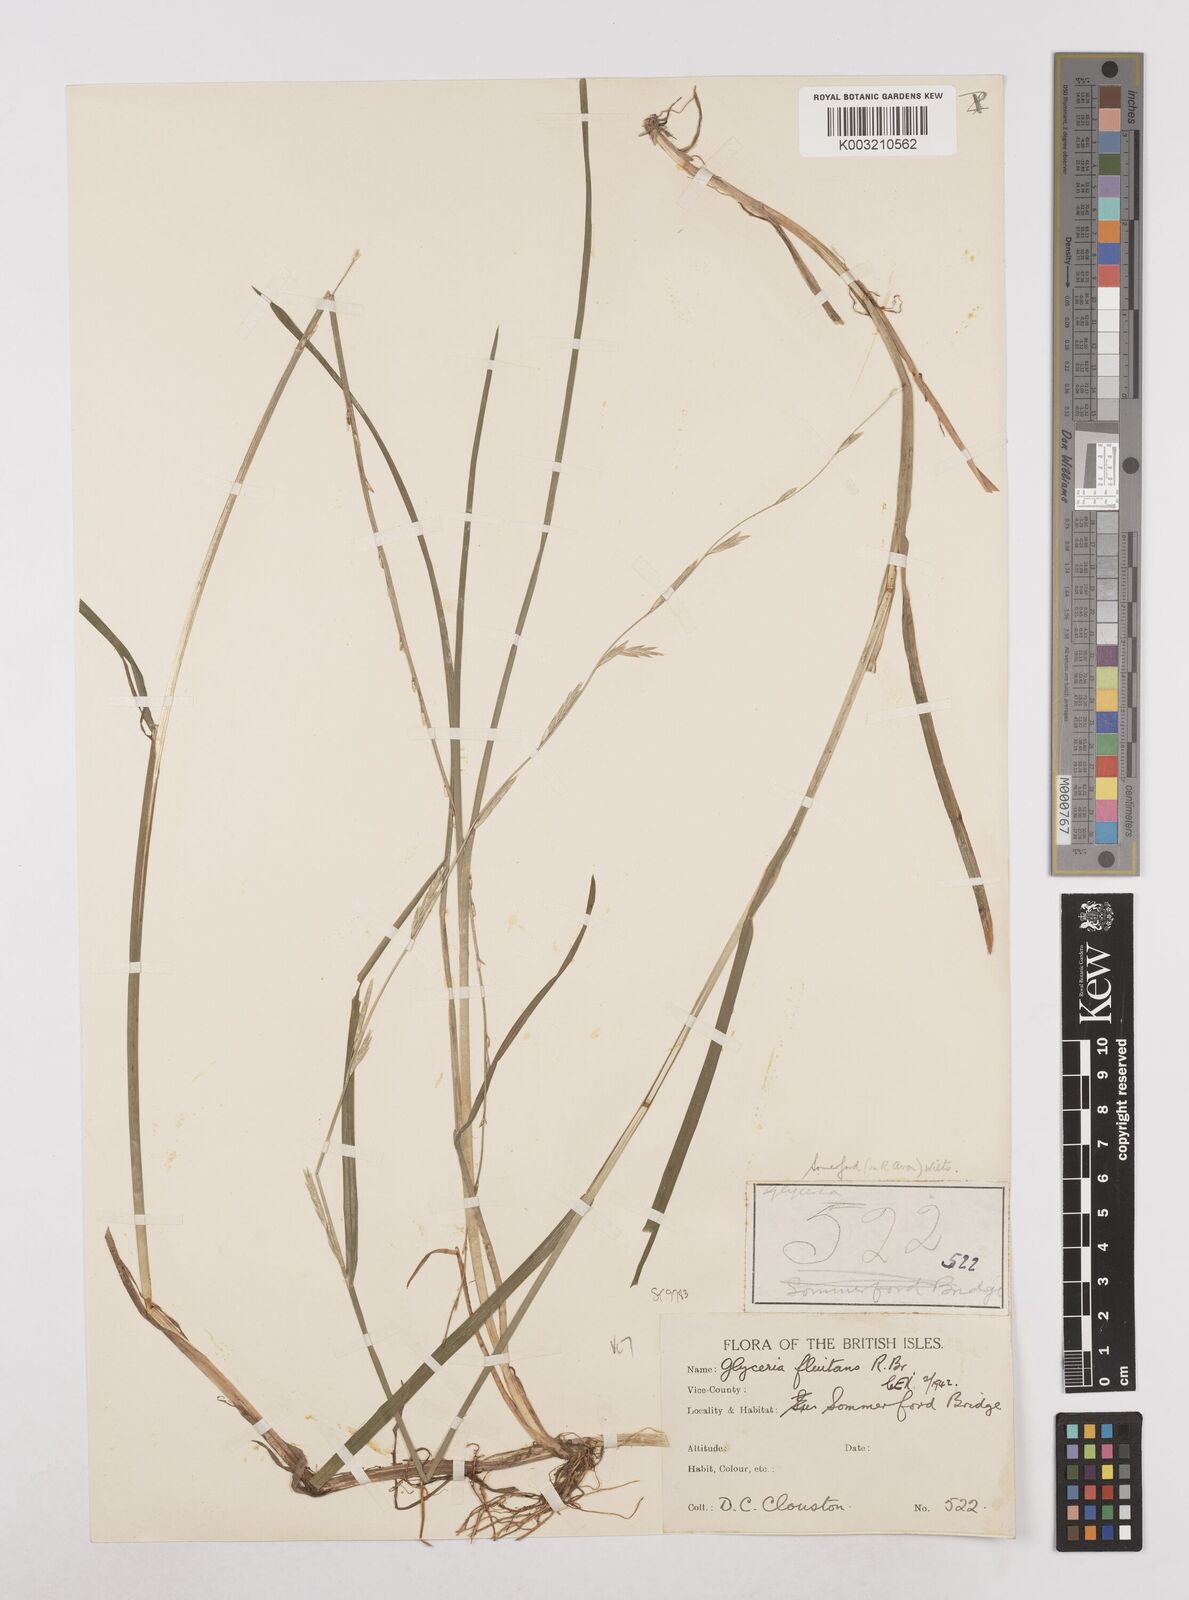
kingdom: Plantae
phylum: Tracheophyta
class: Liliopsida
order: Poales
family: Poaceae
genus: Glyceria
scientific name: Glyceria fluitans
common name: Floating sweet-grass
